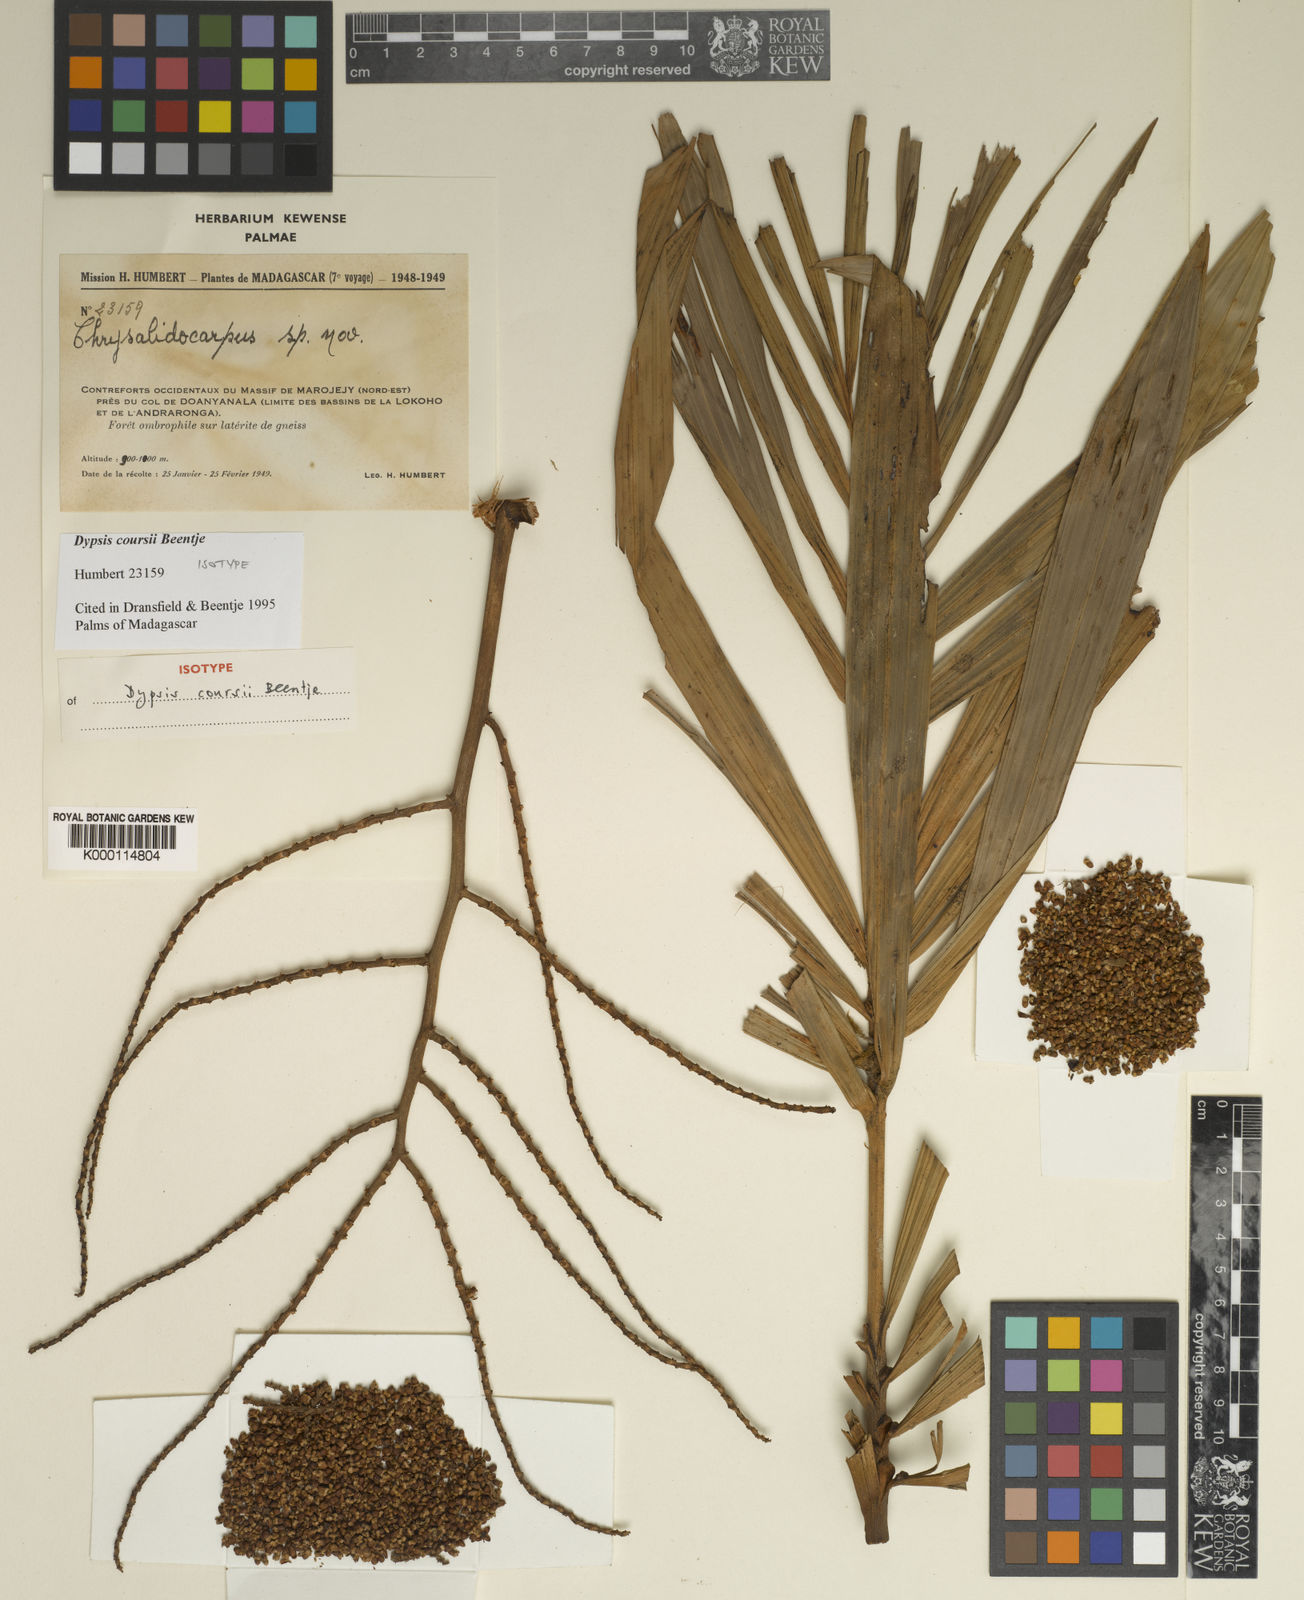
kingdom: Plantae
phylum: Tracheophyta
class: Liliopsida
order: Arecales
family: Arecaceae
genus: Dypsis
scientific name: Dypsis coursii
